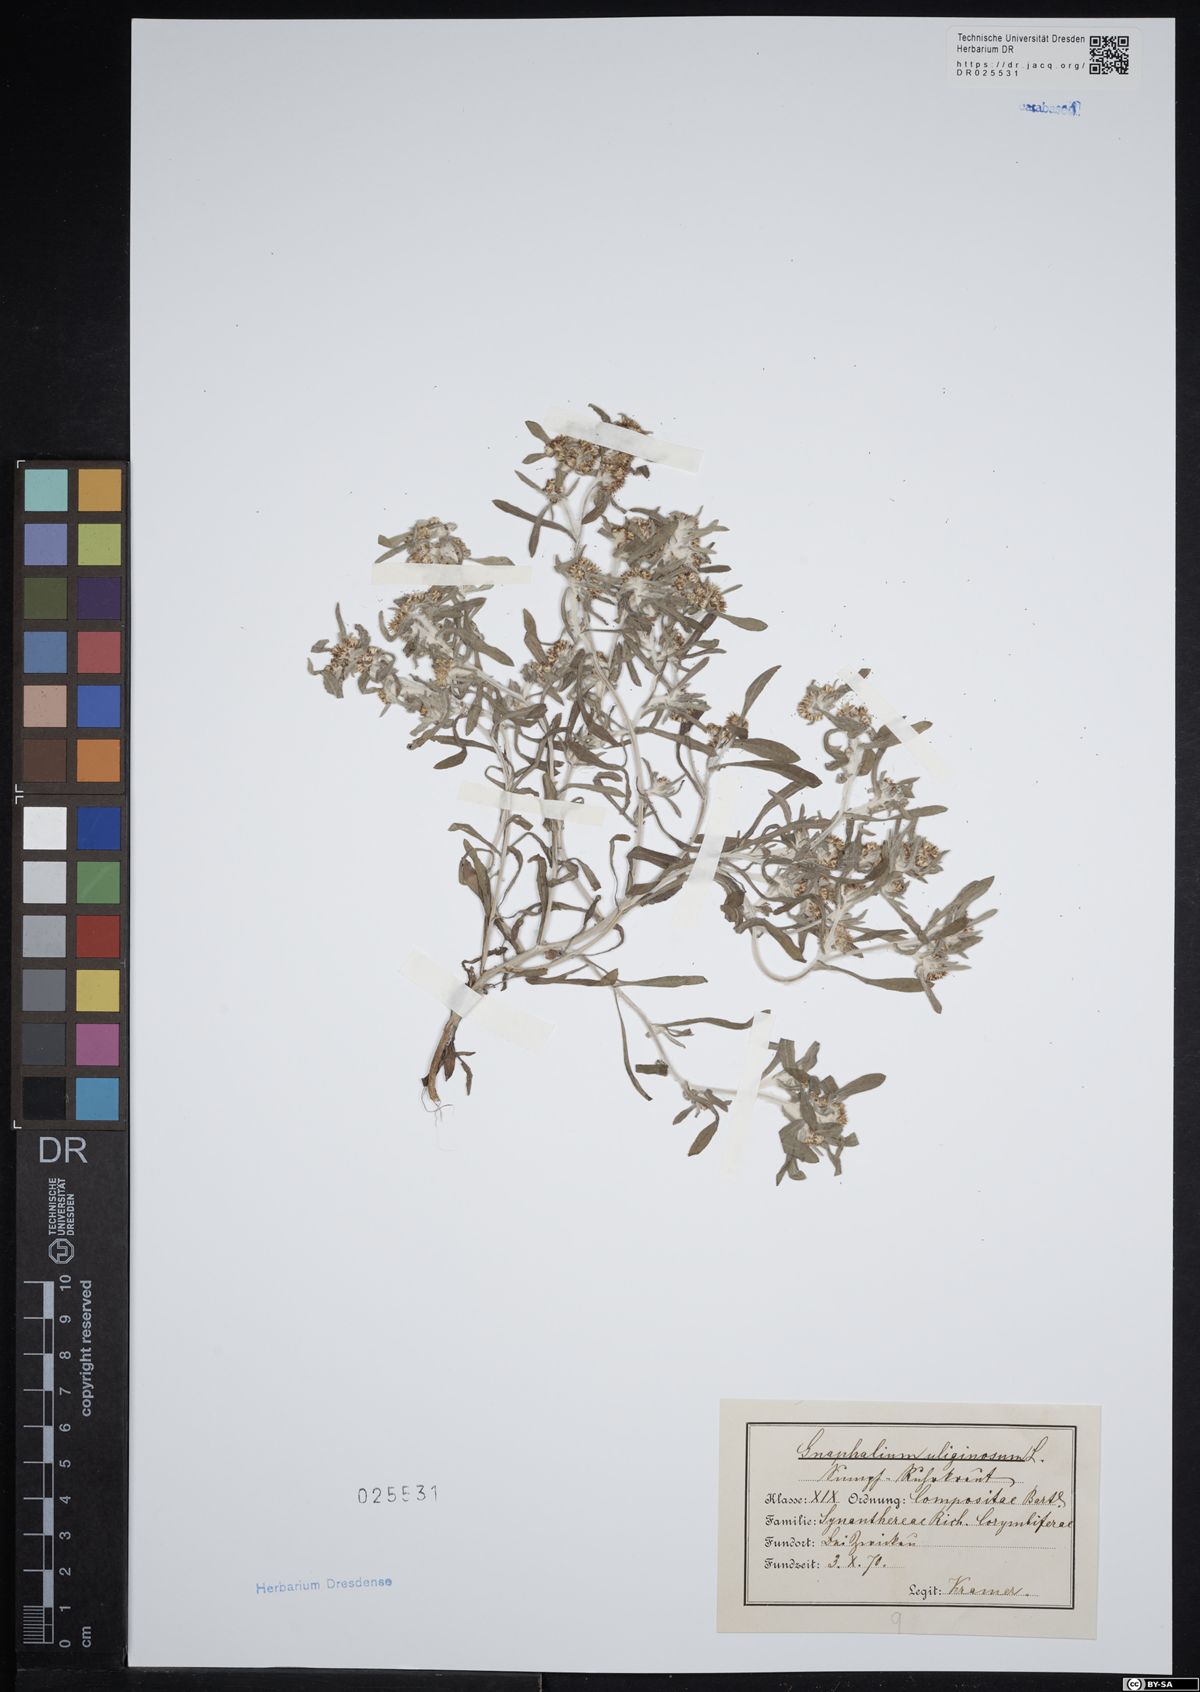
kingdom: Plantae
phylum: Tracheophyta
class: Magnoliopsida
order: Asterales
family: Asteraceae
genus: Gnaphalium
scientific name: Gnaphalium uliginosum
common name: Marsh cudweed
